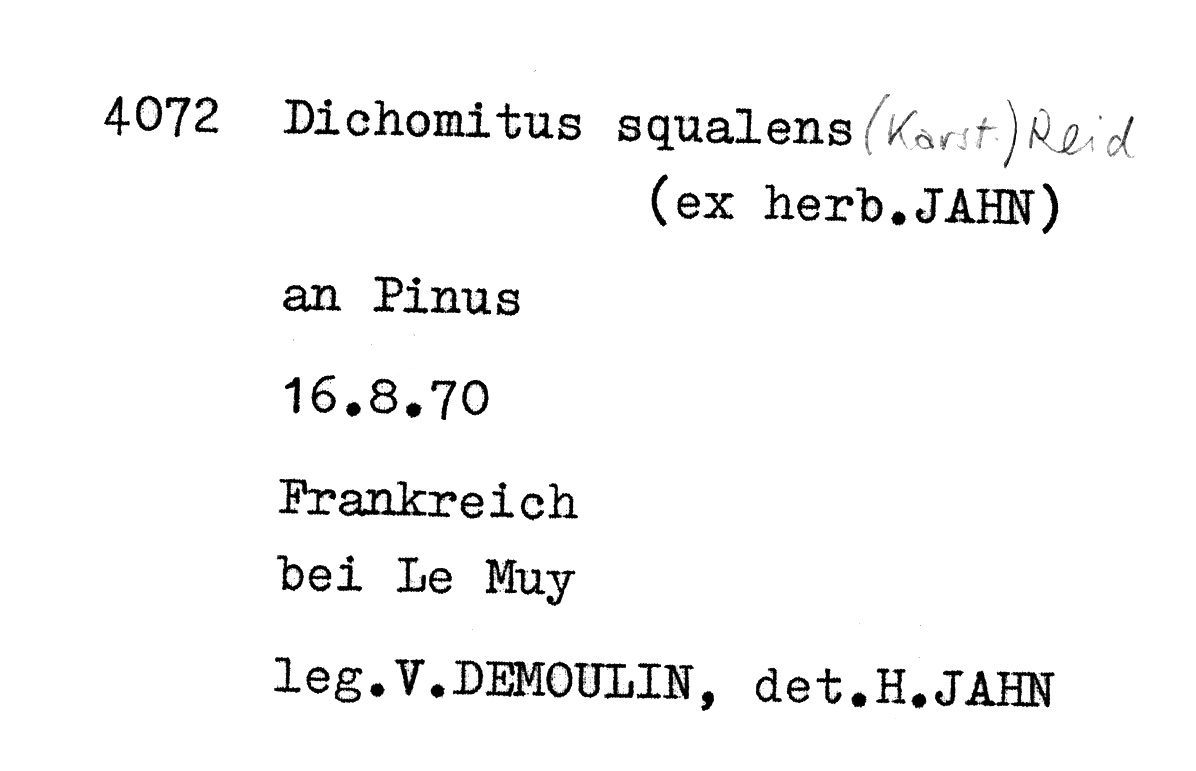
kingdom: Plantae
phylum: Tracheophyta
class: Pinopsida
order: Pinales
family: Pinaceae
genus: Pinus
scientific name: Pinus
